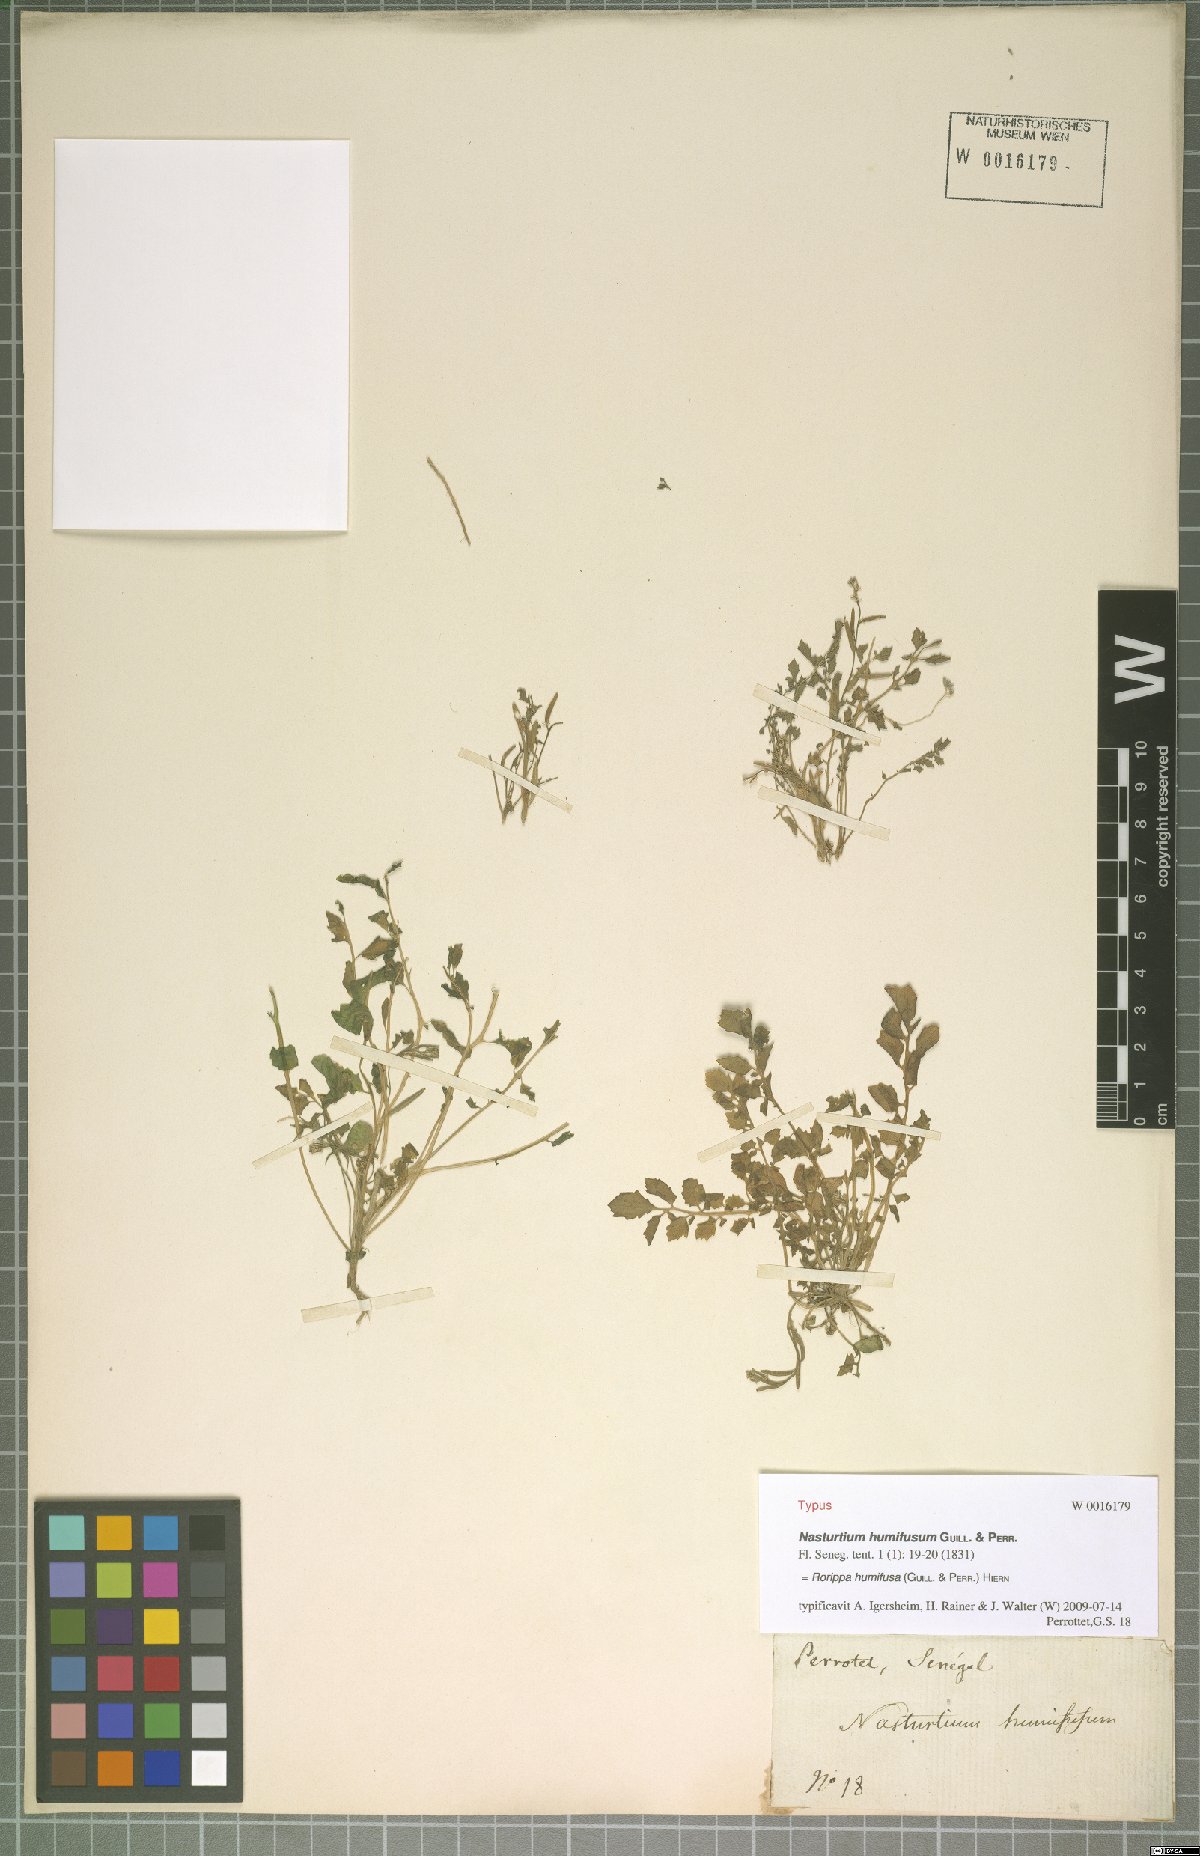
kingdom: Plantae
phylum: Tracheophyta
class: Magnoliopsida
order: Brassicales
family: Brassicaceae
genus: Rorippa
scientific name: Rorippa humifusa
